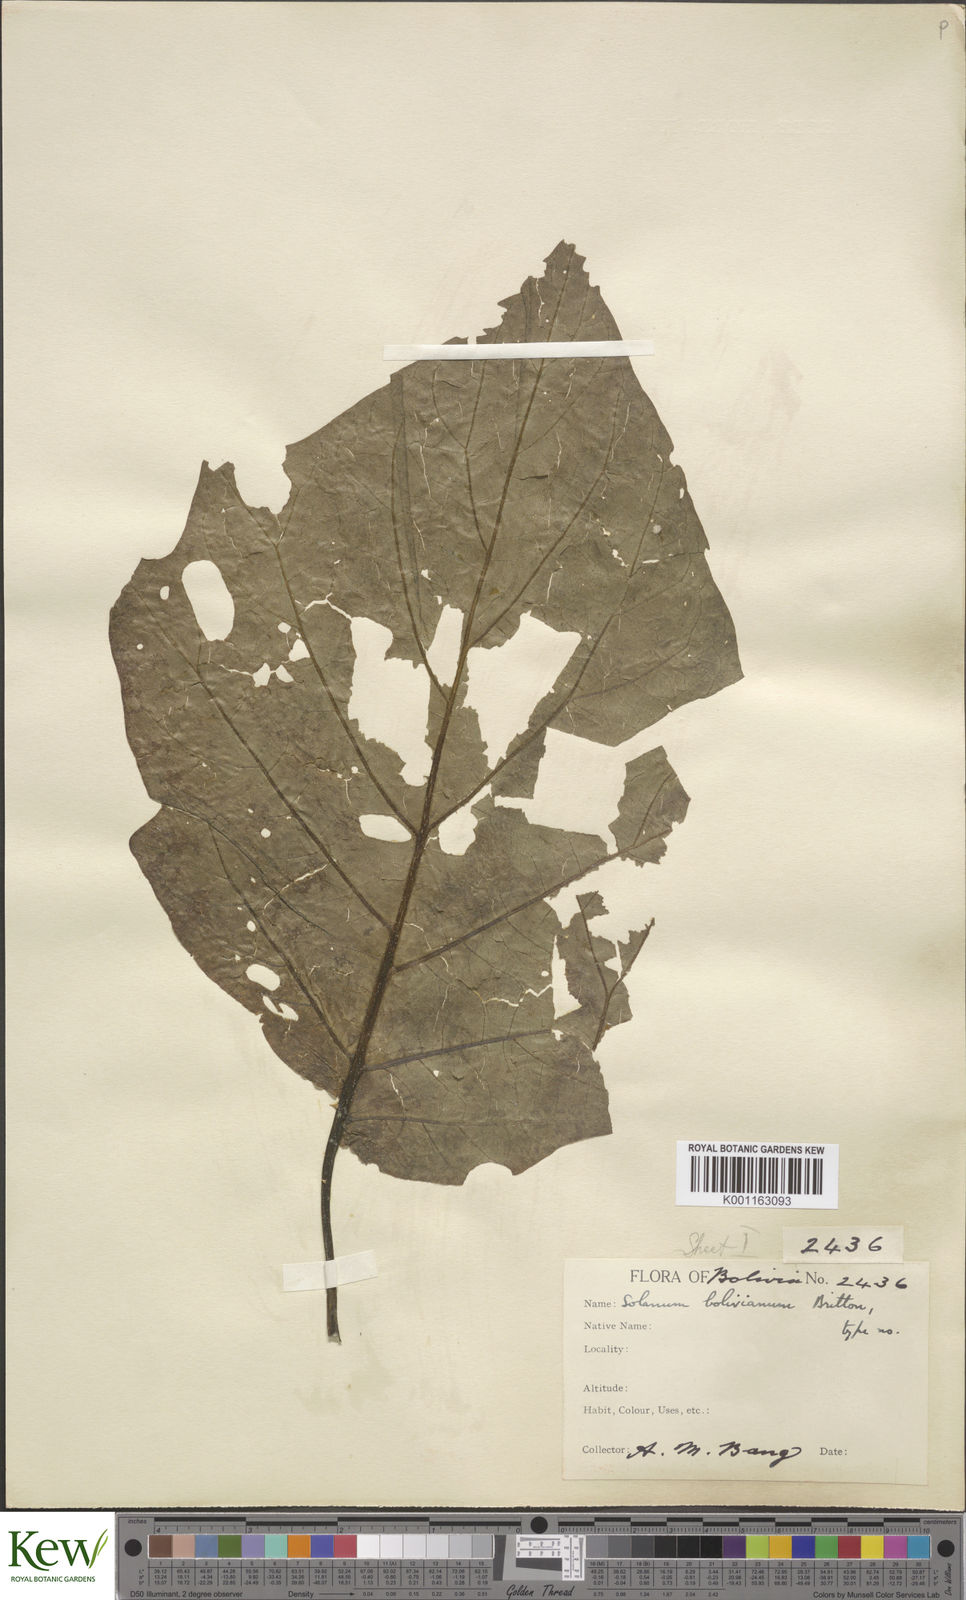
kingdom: Plantae
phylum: Tracheophyta
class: Magnoliopsida
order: Solanales
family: Solanaceae
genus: Solanum
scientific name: Solanum bolivianum
